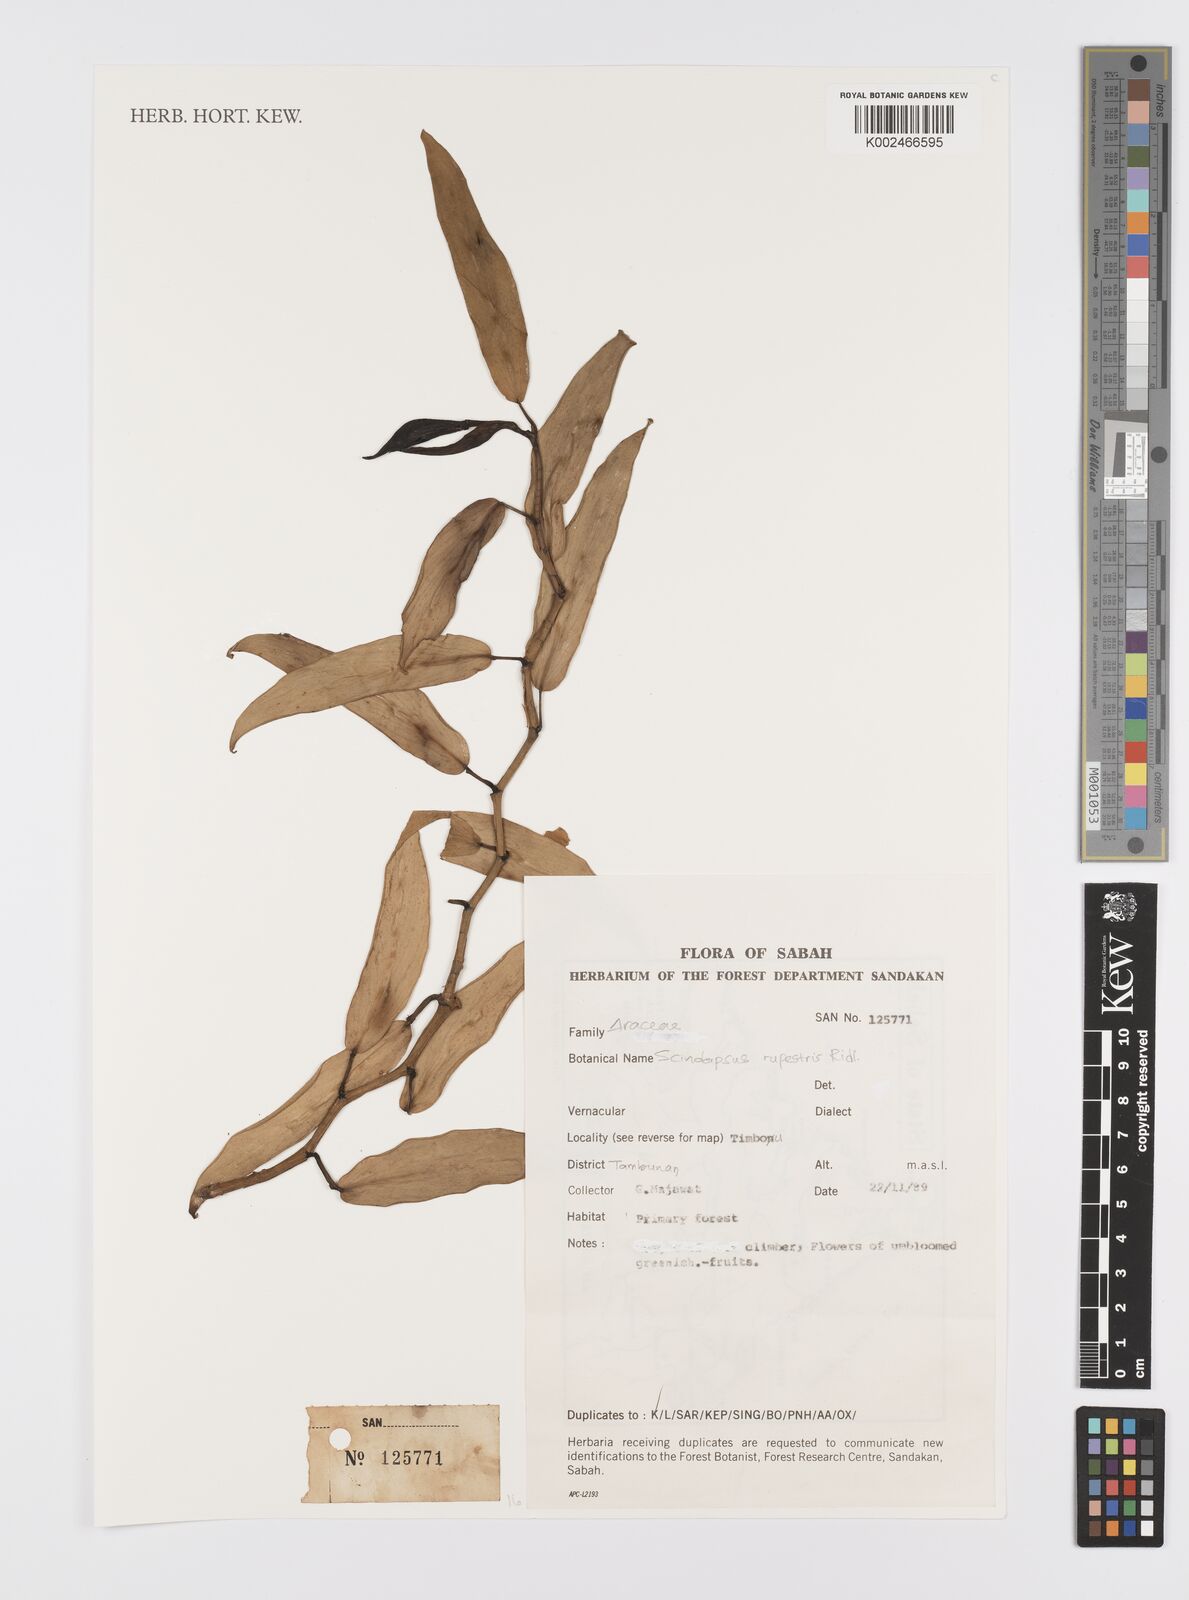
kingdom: Plantae
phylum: Tracheophyta
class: Liliopsida
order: Alismatales
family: Araceae
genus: Scindapsus
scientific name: Scindapsus sumatranus
